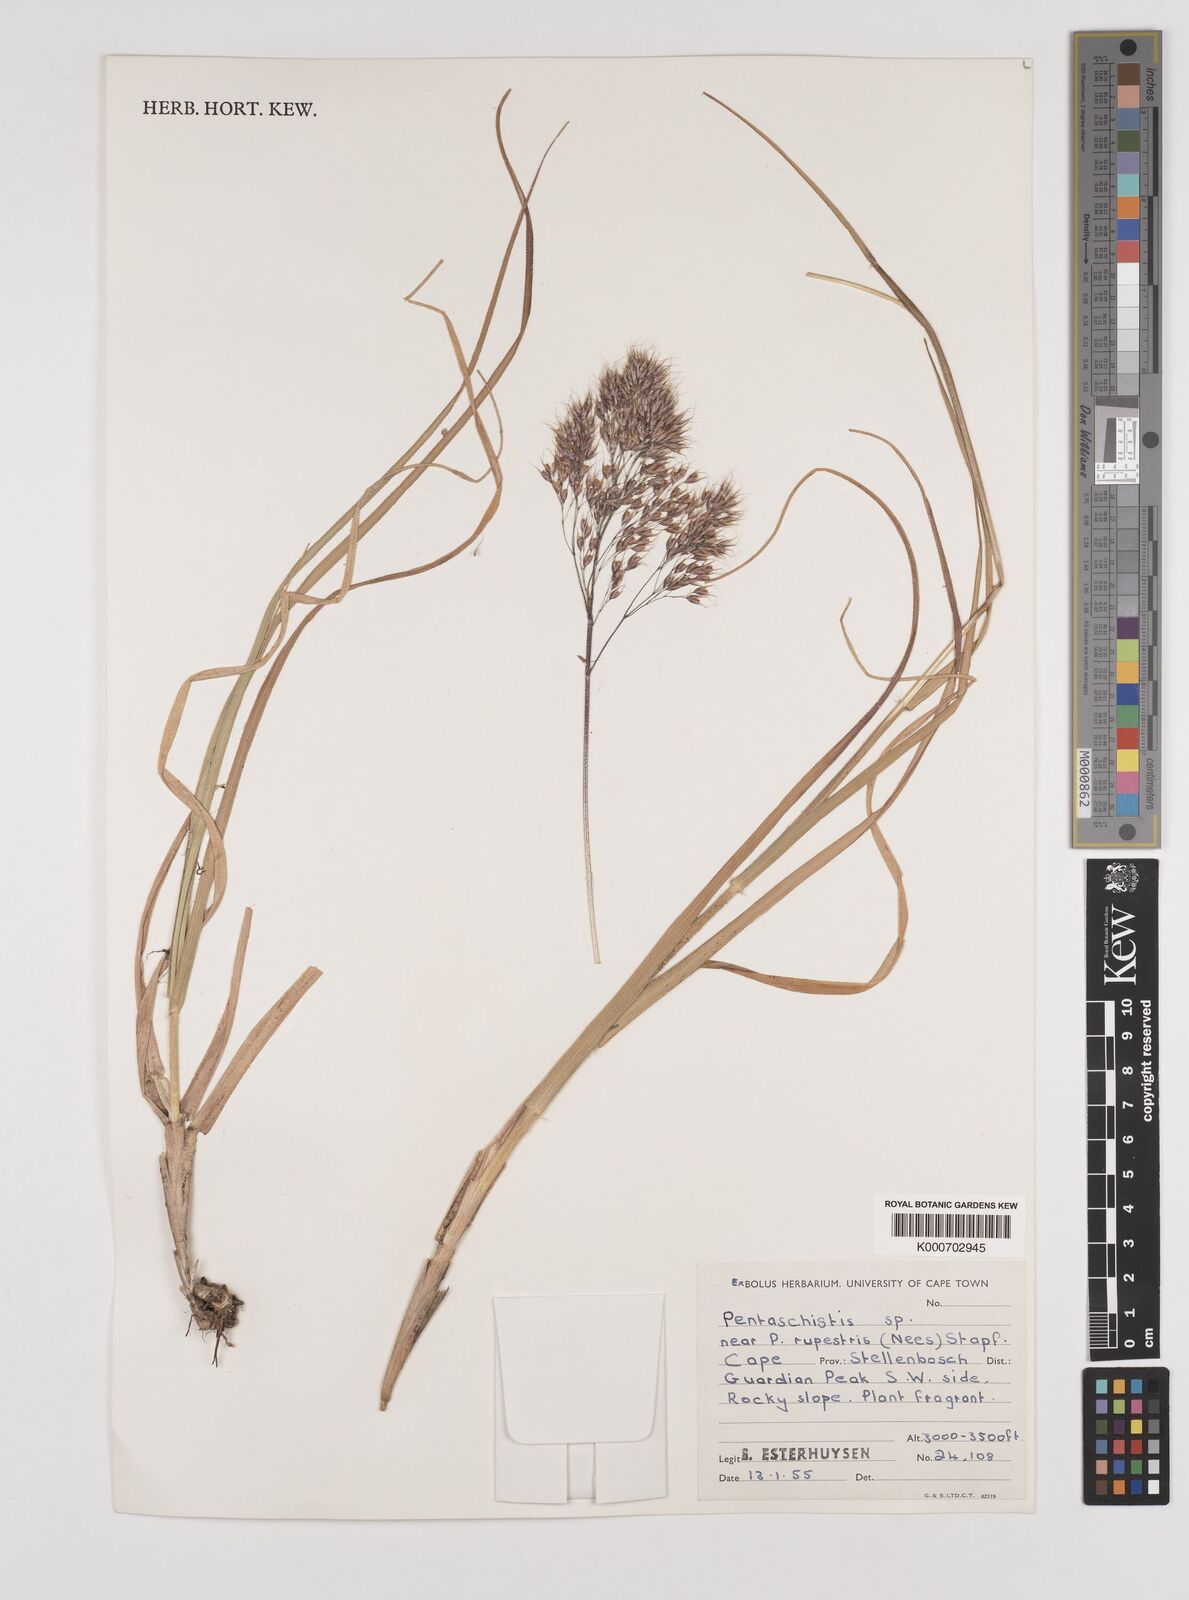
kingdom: Plantae
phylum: Tracheophyta
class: Liliopsida
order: Poales
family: Poaceae
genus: Pentameris
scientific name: Pentameris rupestris
